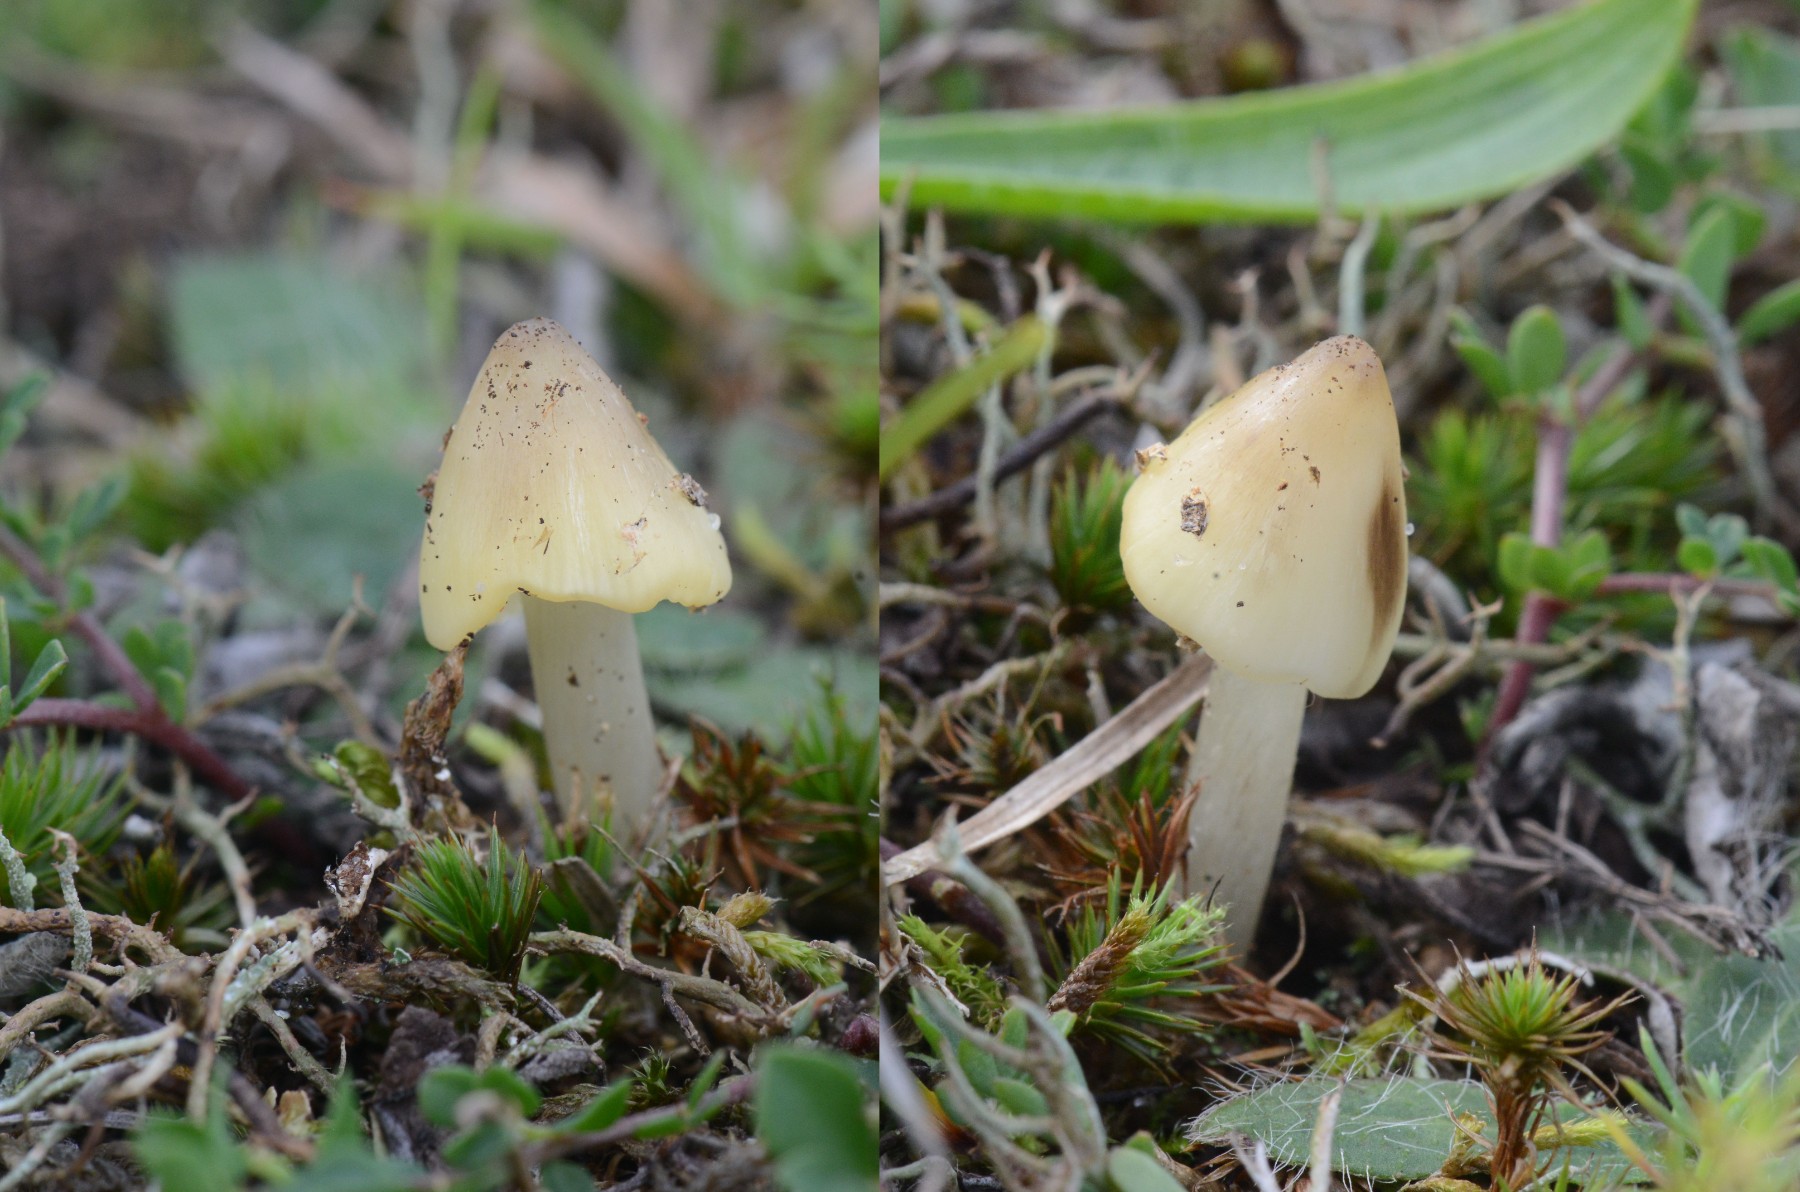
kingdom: Fungi
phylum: Basidiomycota
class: Agaricomycetes
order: Agaricales
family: Hygrophoraceae
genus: Hygrocybe
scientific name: Hygrocybe conica
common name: oliven-vokshat
